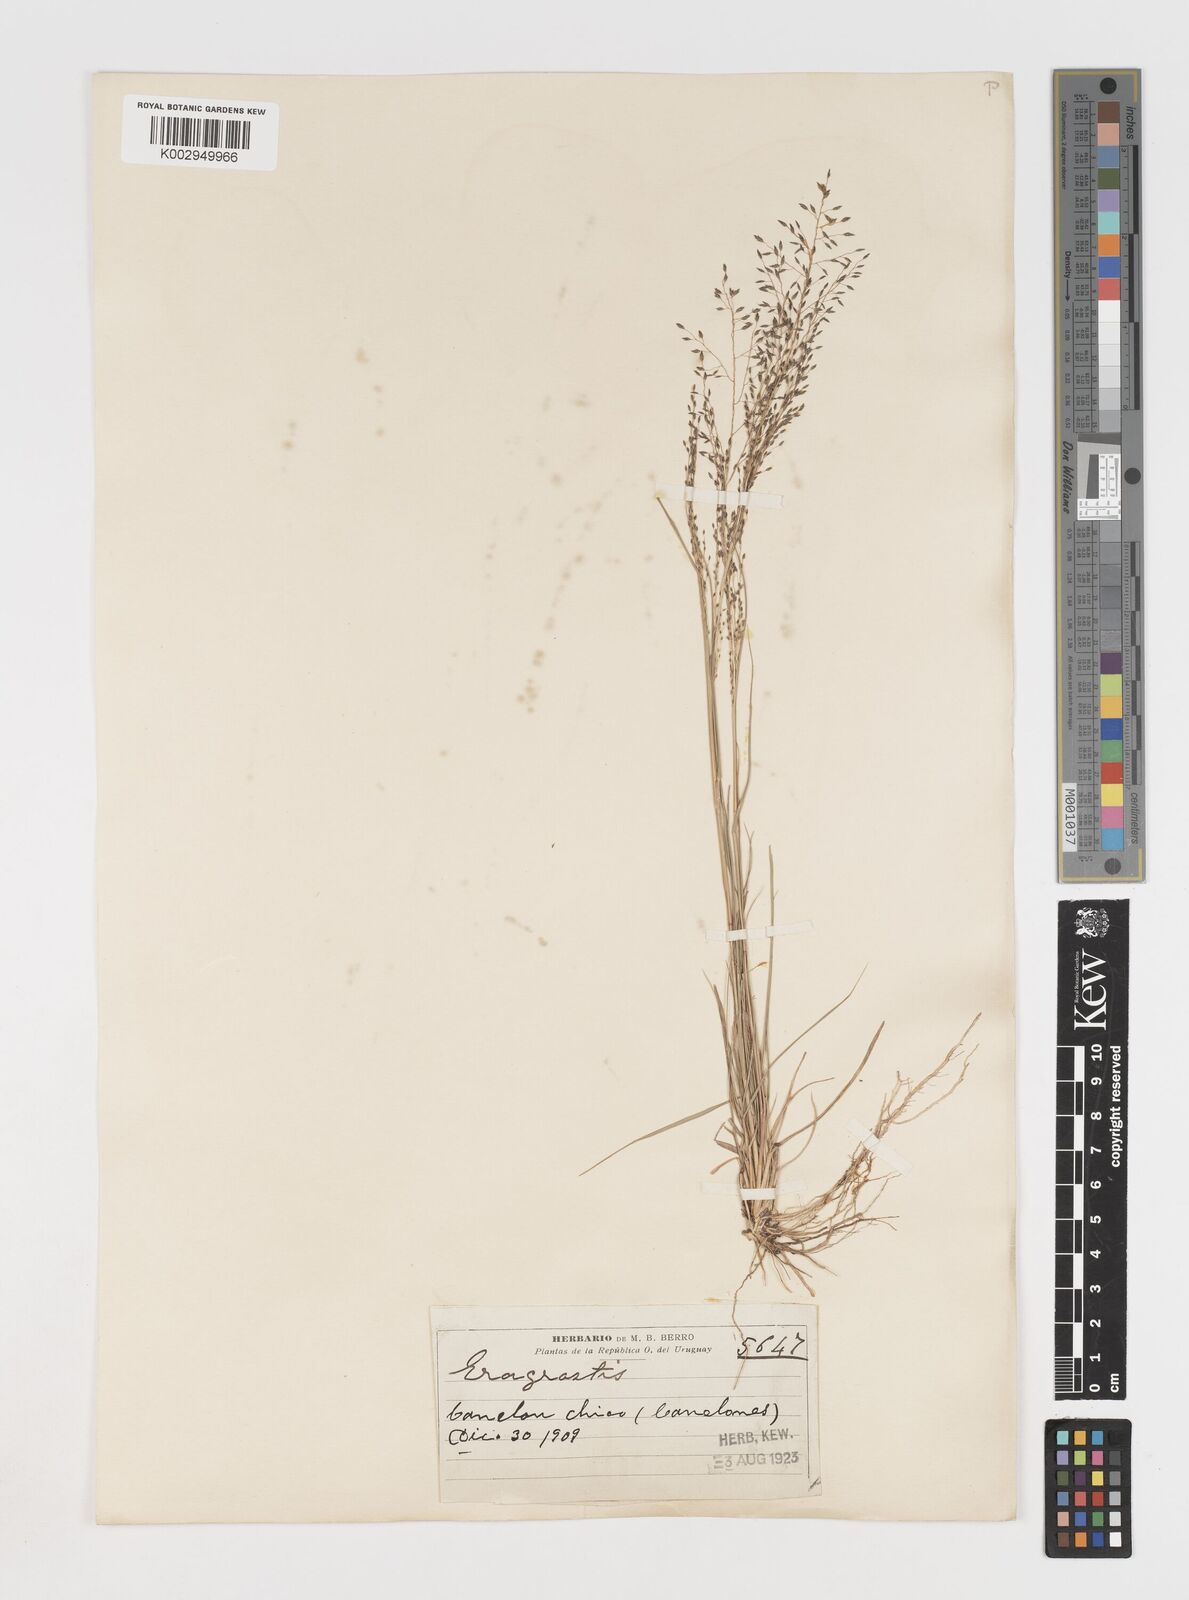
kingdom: Plantae
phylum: Tracheophyta
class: Liliopsida
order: Poales
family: Poaceae
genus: Eragrostis
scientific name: Eragrostis
